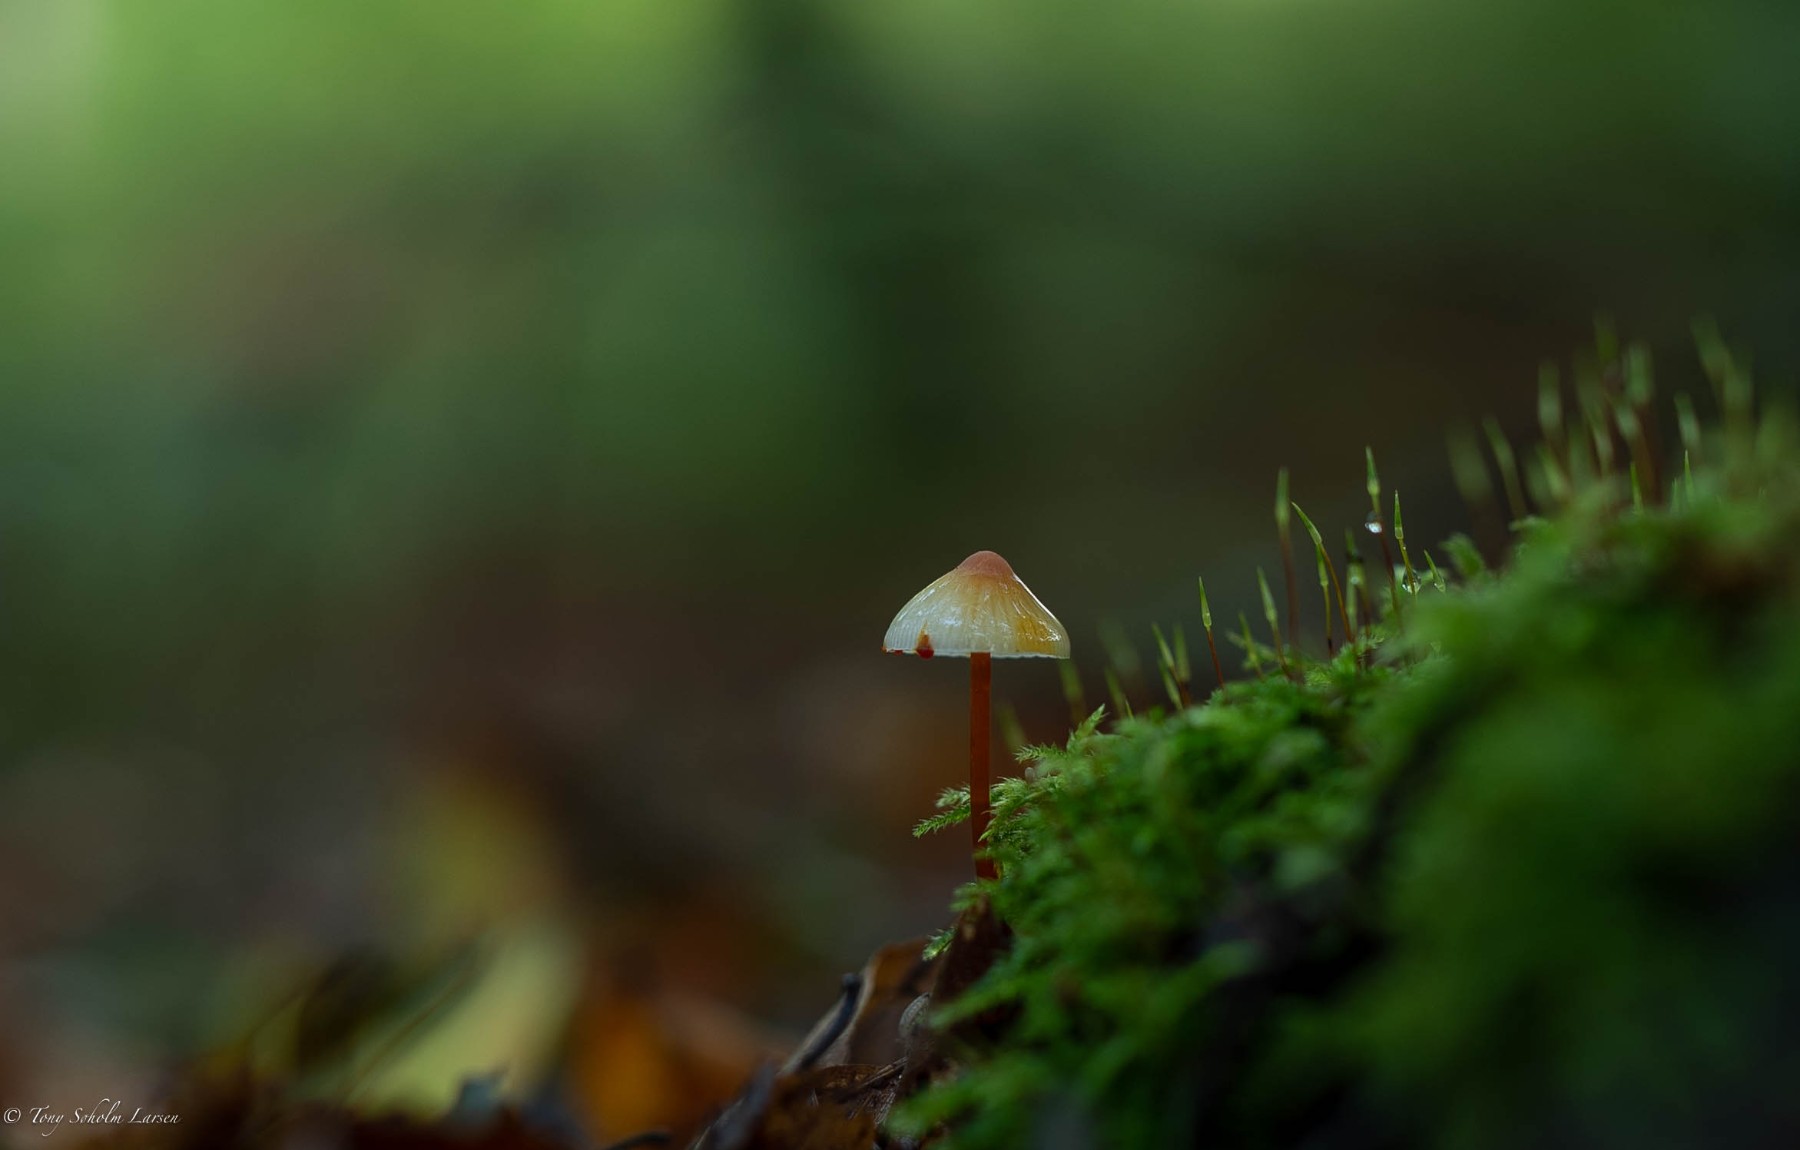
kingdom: Fungi
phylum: Basidiomycota
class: Agaricomycetes
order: Agaricales
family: Mycenaceae
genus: Mycena
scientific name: Mycena crocata
